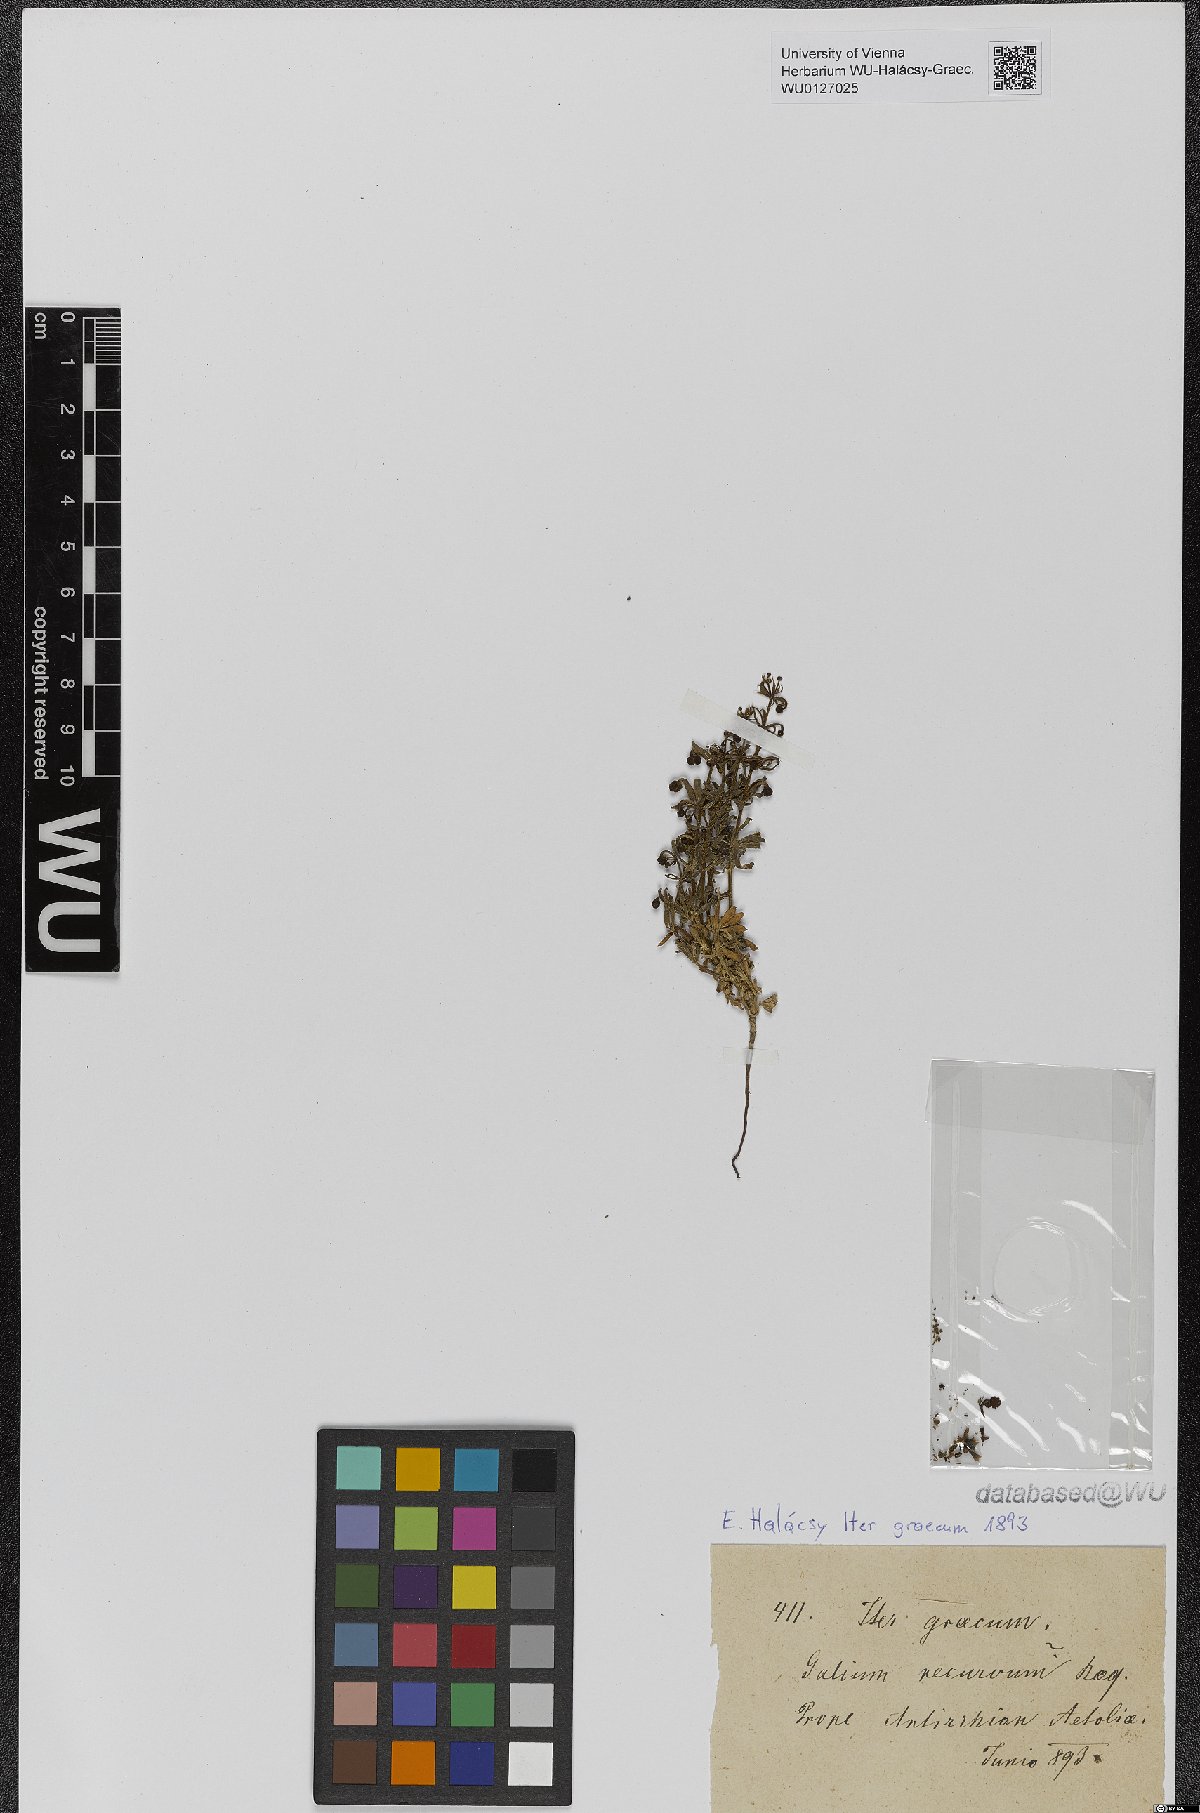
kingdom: Plantae
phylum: Tracheophyta
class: Magnoliopsida
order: Gentianales
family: Rubiaceae
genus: Galium
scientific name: Galium caminianum
